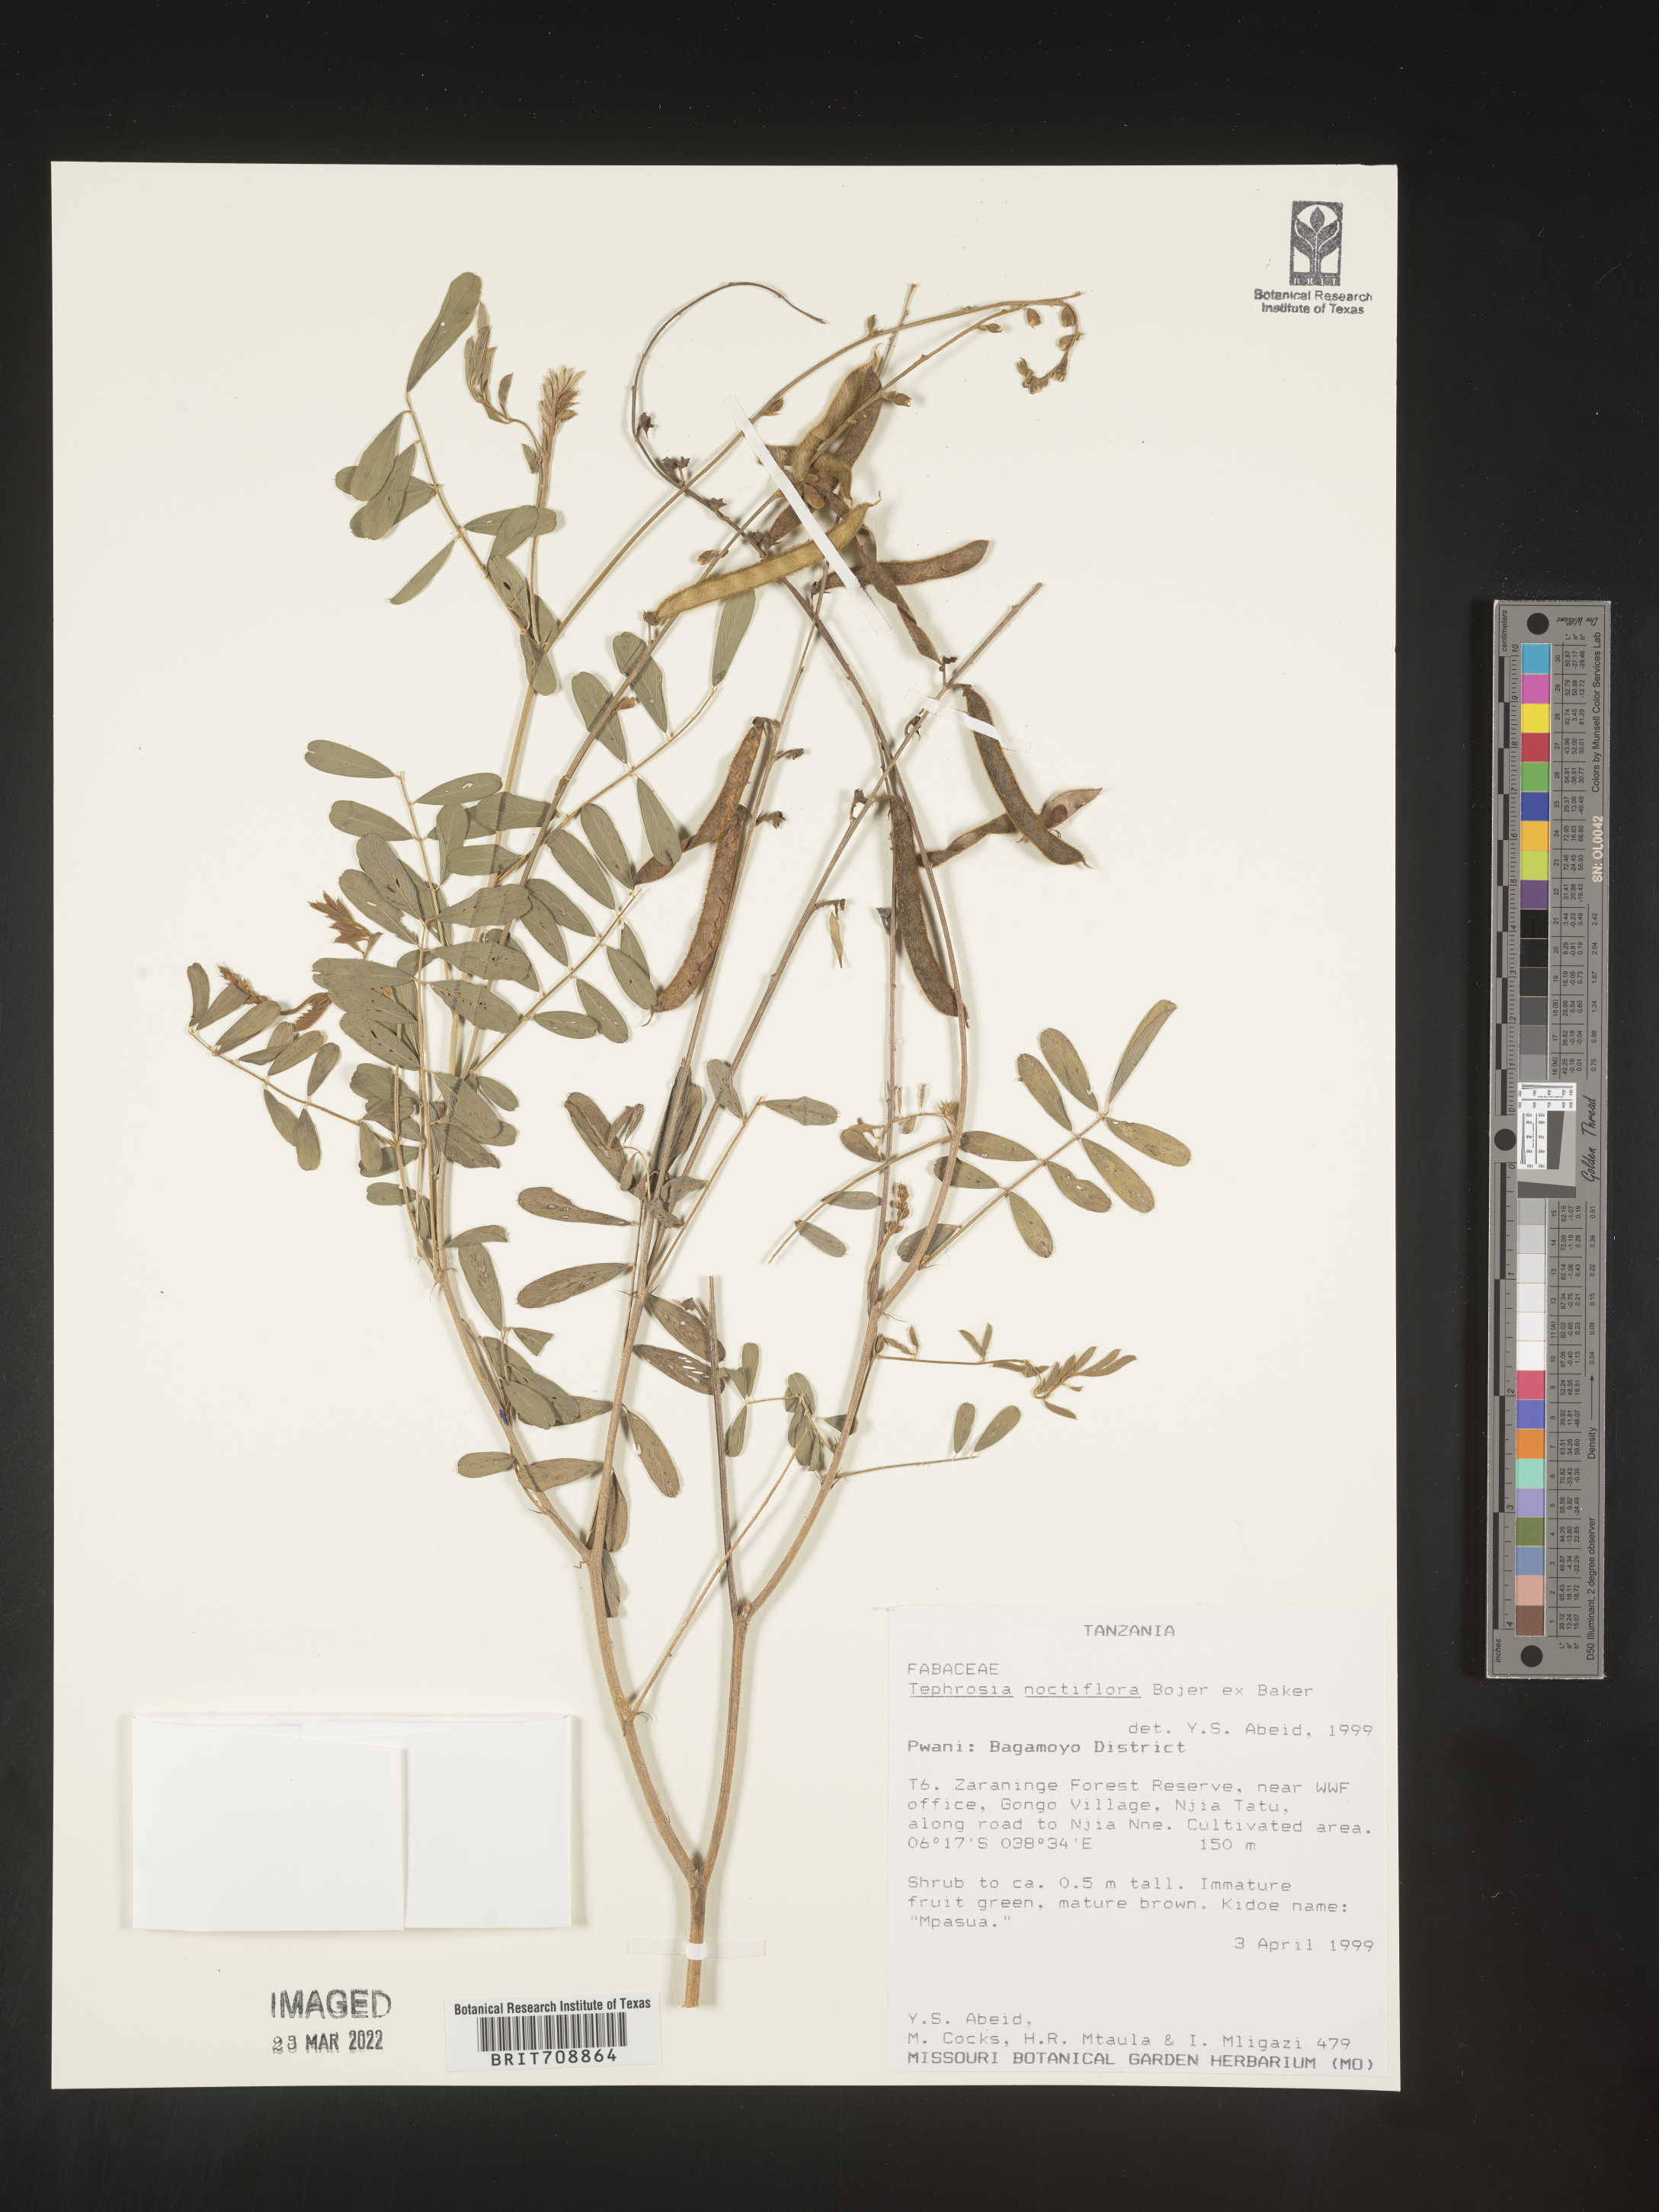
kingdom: Plantae
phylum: Tracheophyta
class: Magnoliopsida
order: Fabales
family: Fabaceae
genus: Tephrosia
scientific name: Tephrosia
